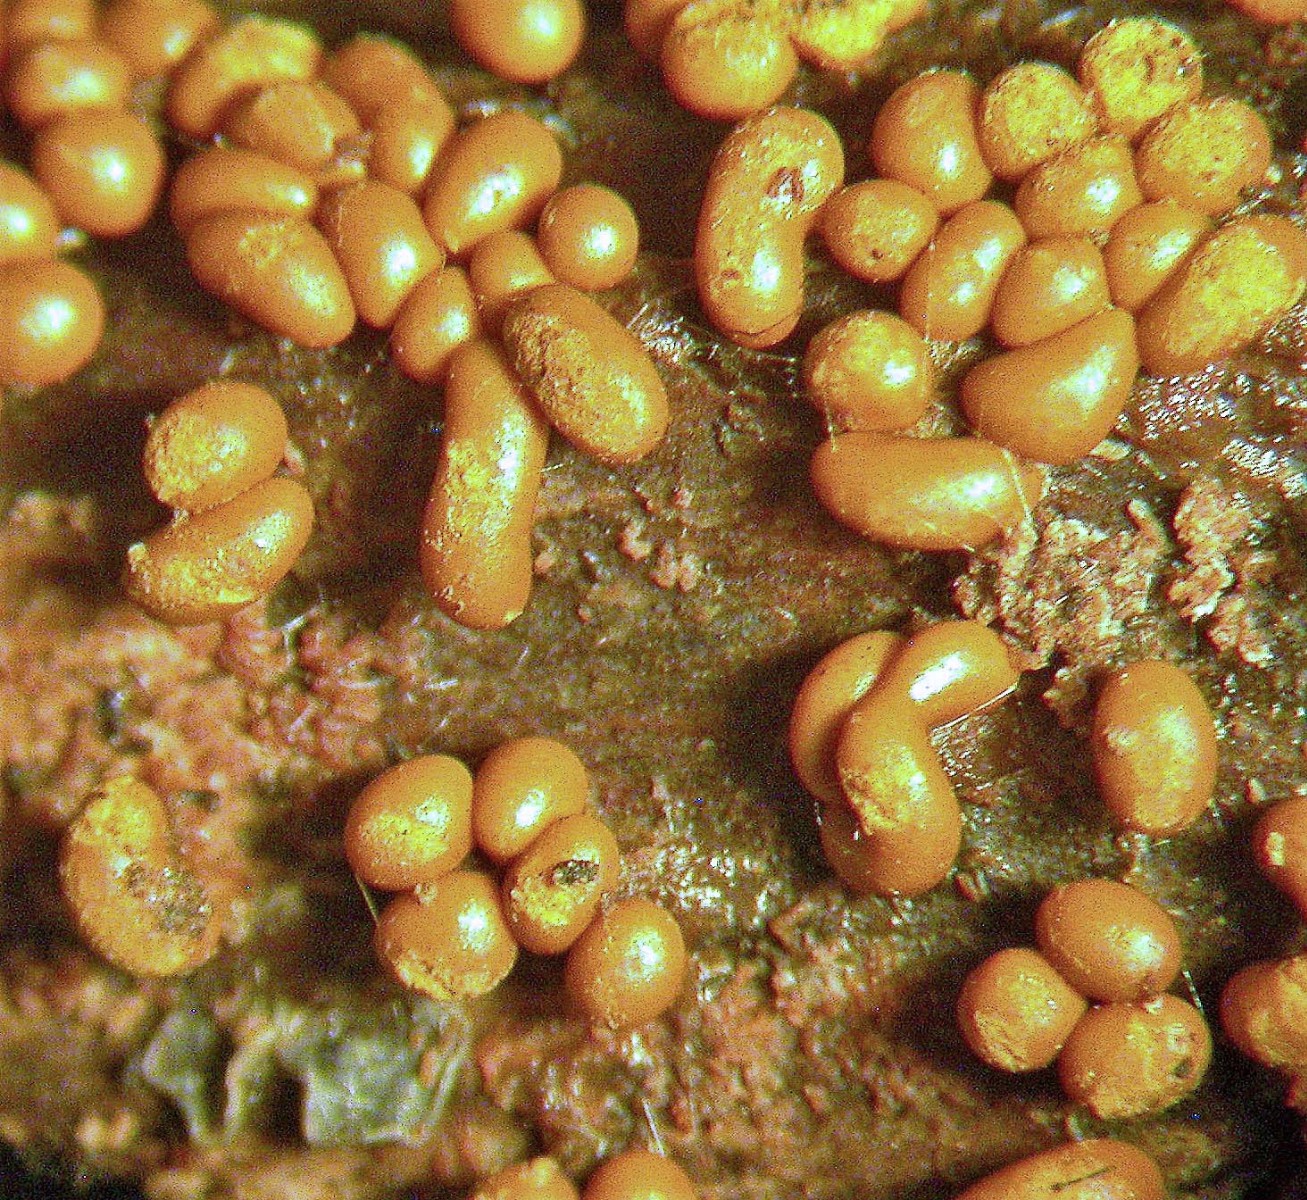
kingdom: Protozoa
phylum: Mycetozoa
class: Myxomycetes
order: Trichiales
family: Trichiaceae
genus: Trichia
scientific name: Trichia varia
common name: foranderlig hårbold
